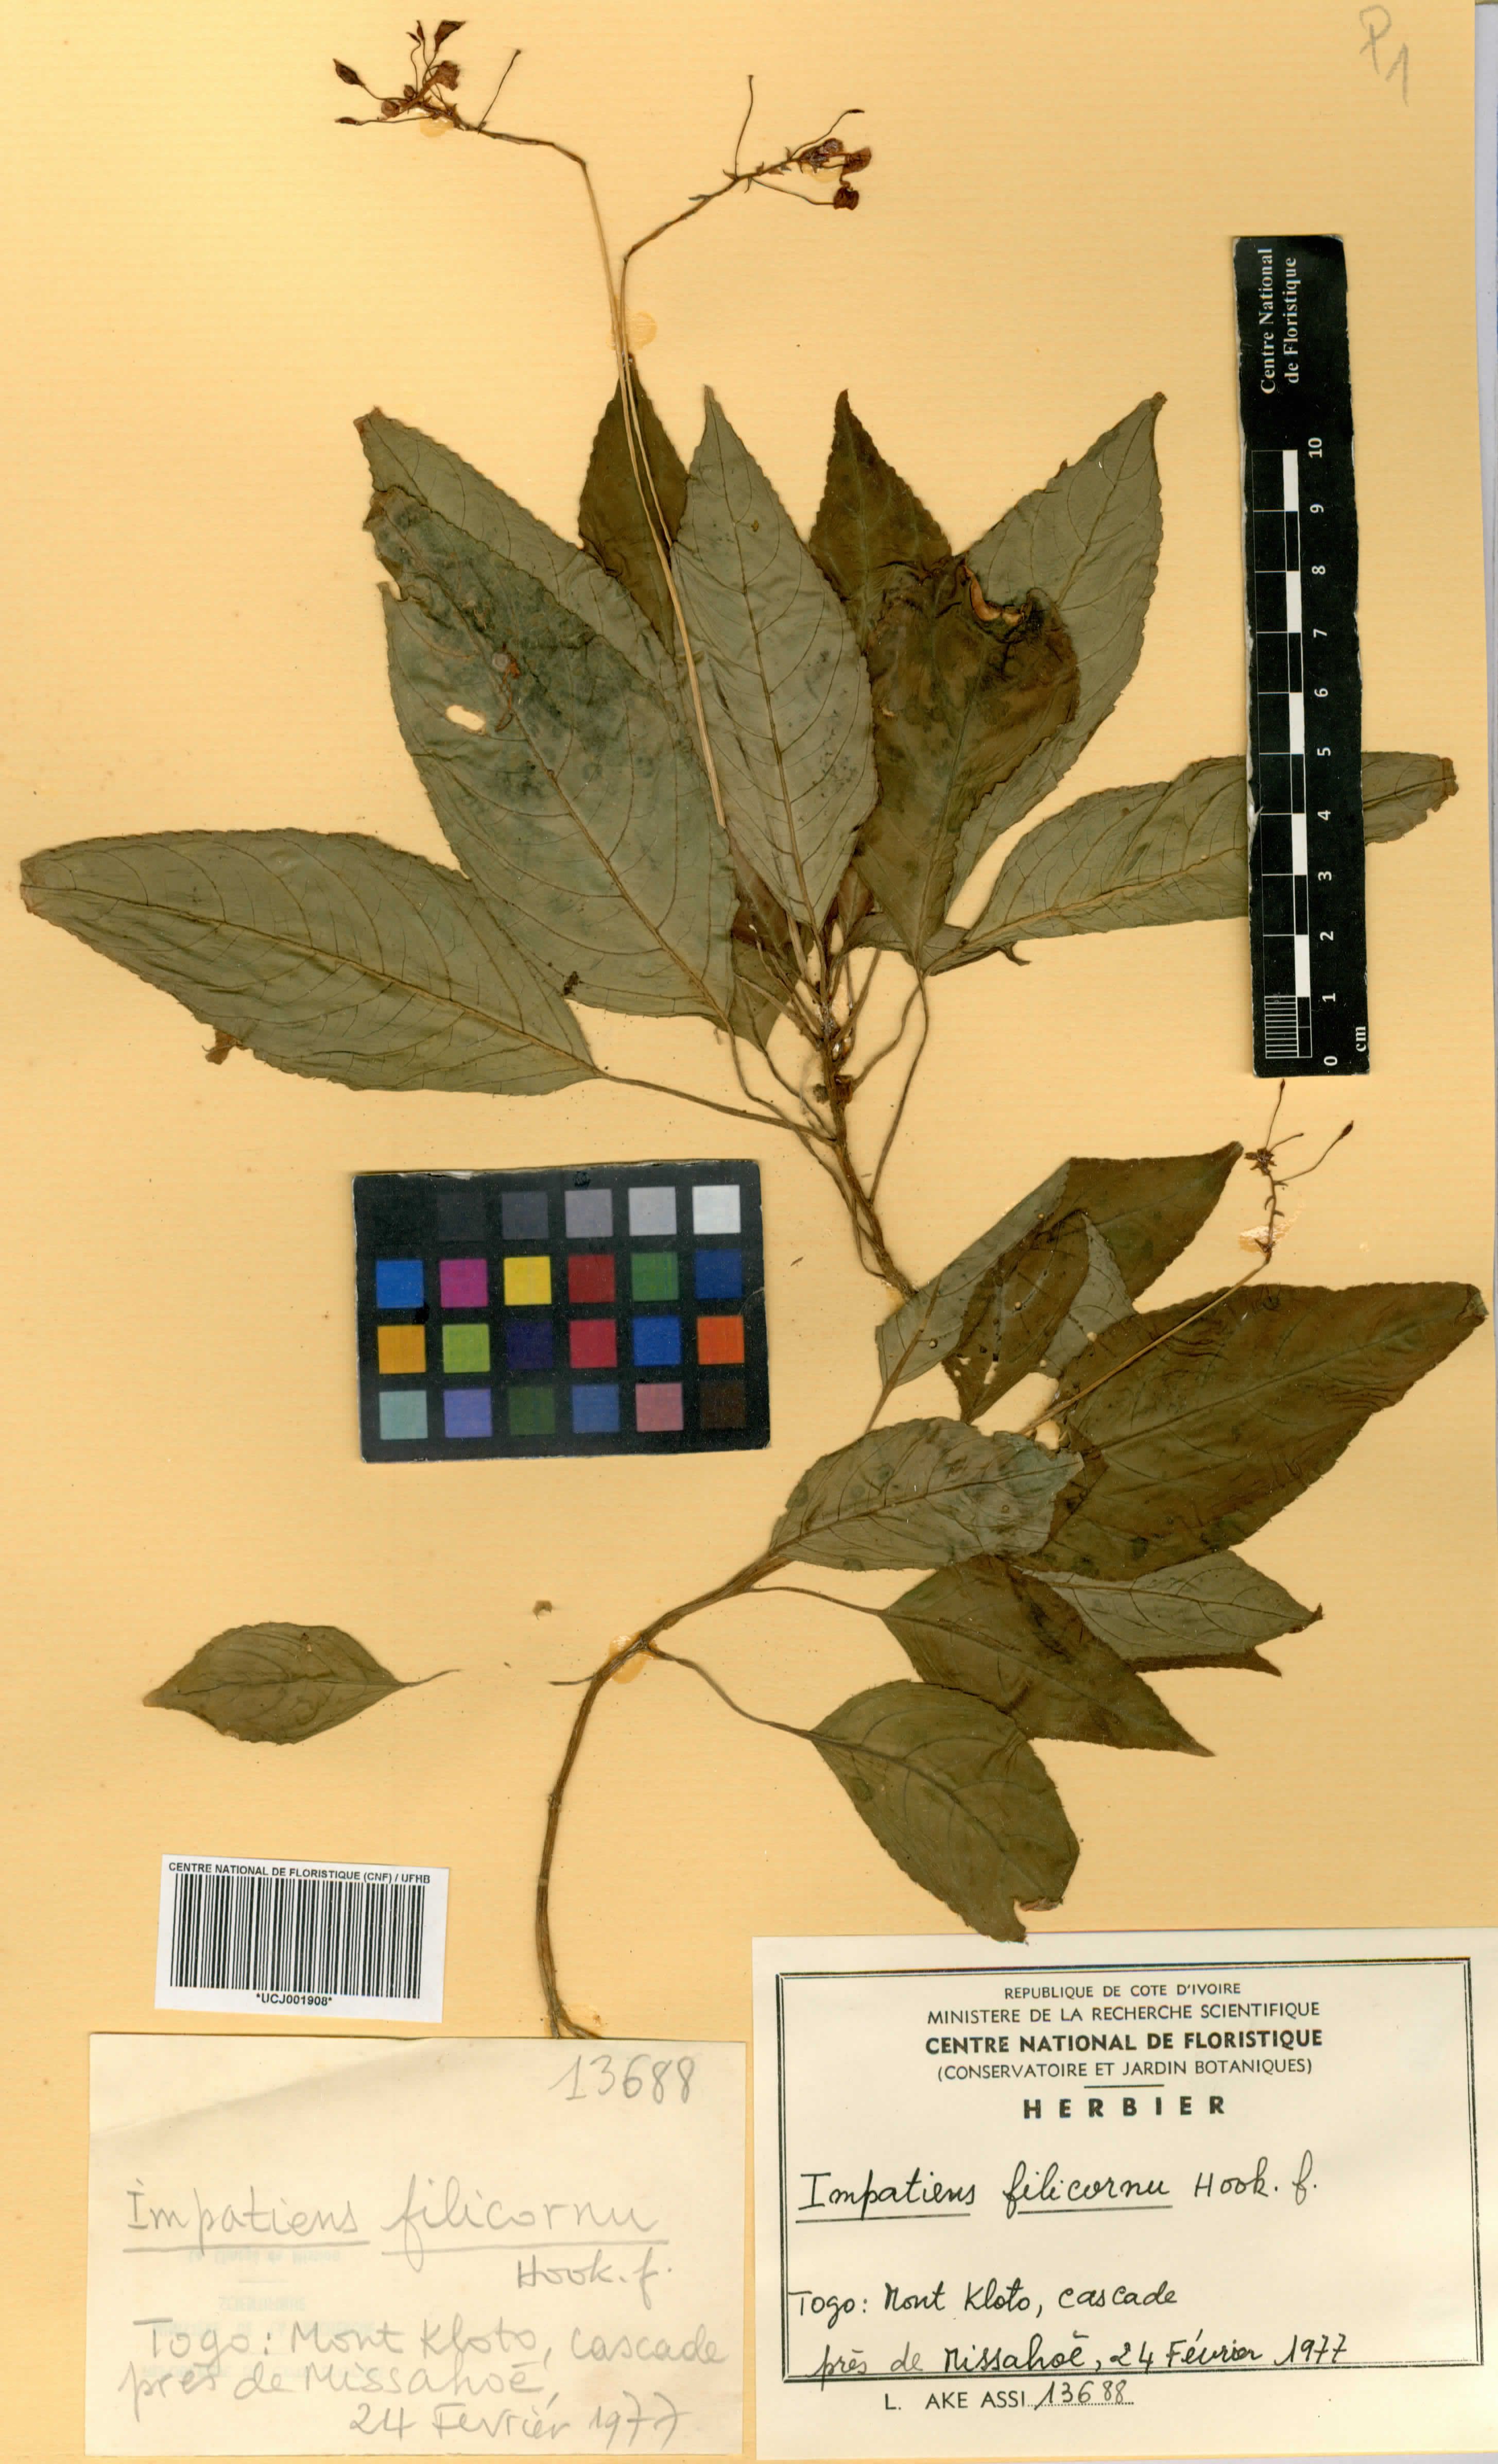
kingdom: Plantae
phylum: Tracheophyta
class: Magnoliopsida
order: Ericales
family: Balsaminaceae
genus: Impatiens
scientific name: Impatiens filicornu
